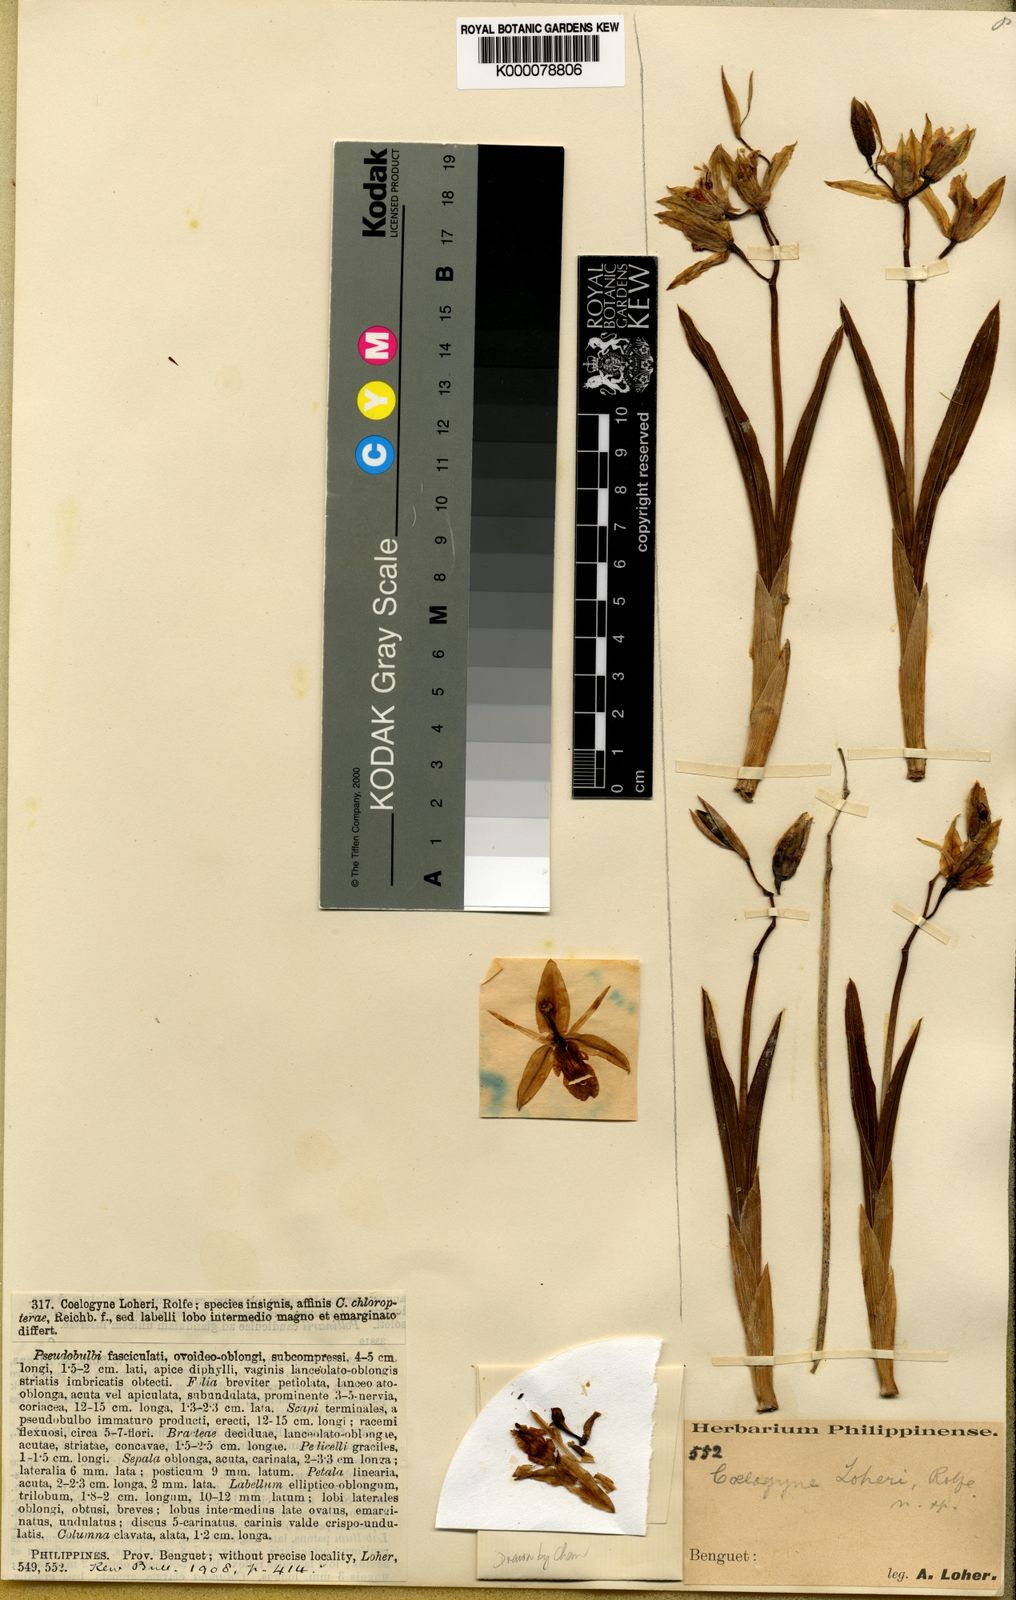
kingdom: Plantae
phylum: Tracheophyta
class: Liliopsida
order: Asparagales
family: Orchidaceae
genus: Coelogyne
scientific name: Coelogyne loheri
